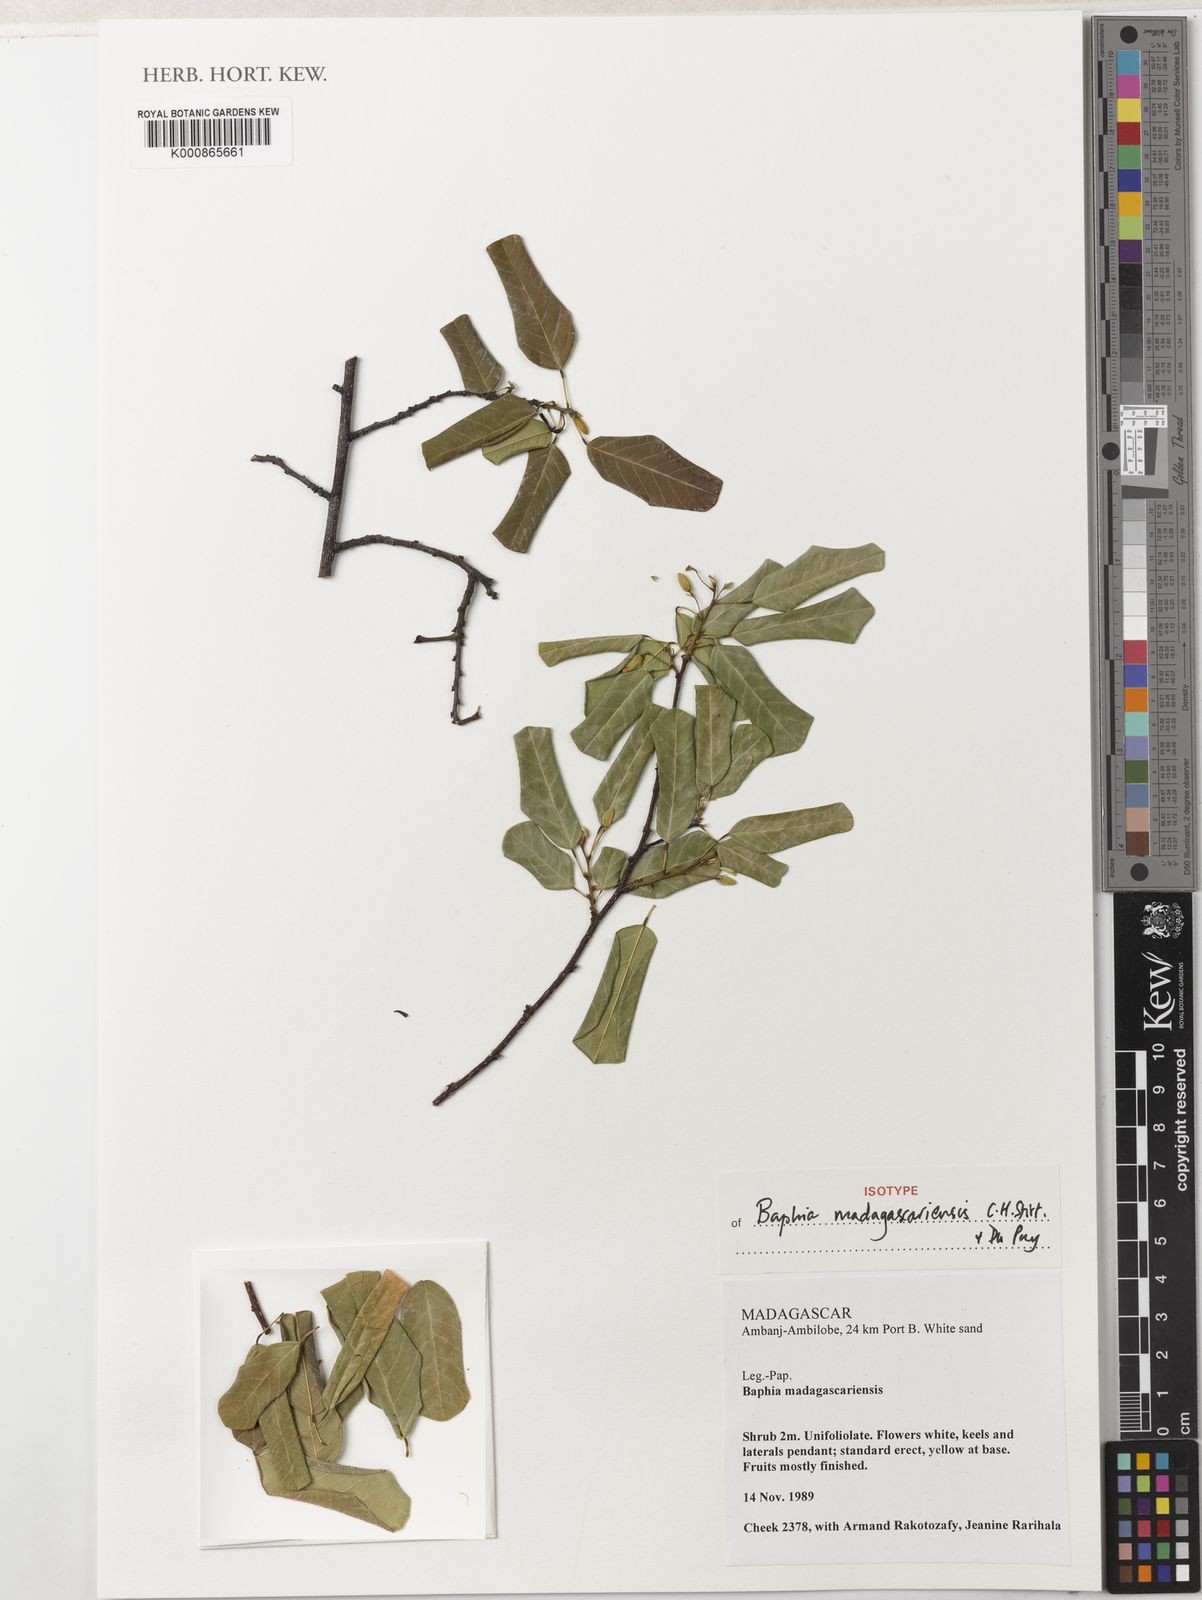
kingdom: Plantae
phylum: Tracheophyta
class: Magnoliopsida
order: Fabales
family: Fabaceae
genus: Baphia
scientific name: Baphia madagascariensis
